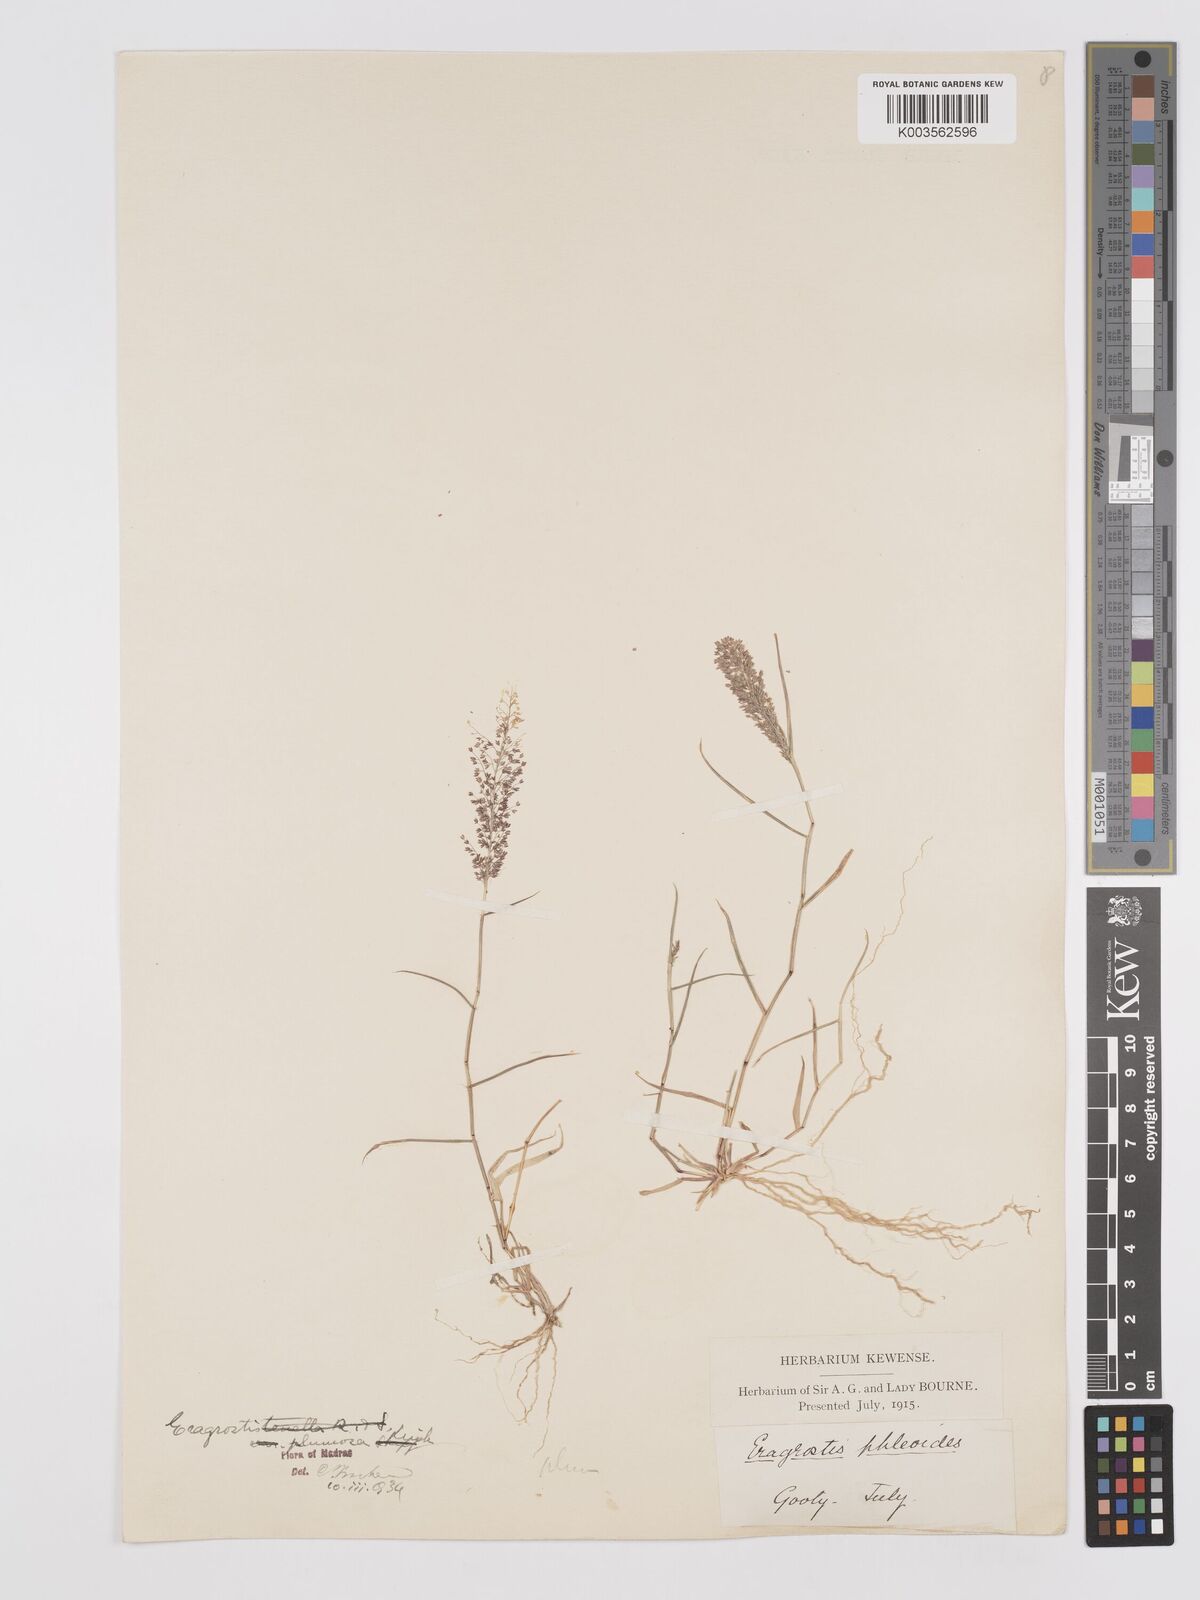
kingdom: Plantae
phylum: Tracheophyta
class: Liliopsida
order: Poales
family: Poaceae
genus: Eragrostis
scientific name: Eragrostis tenella
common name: Japanese lovegrass
